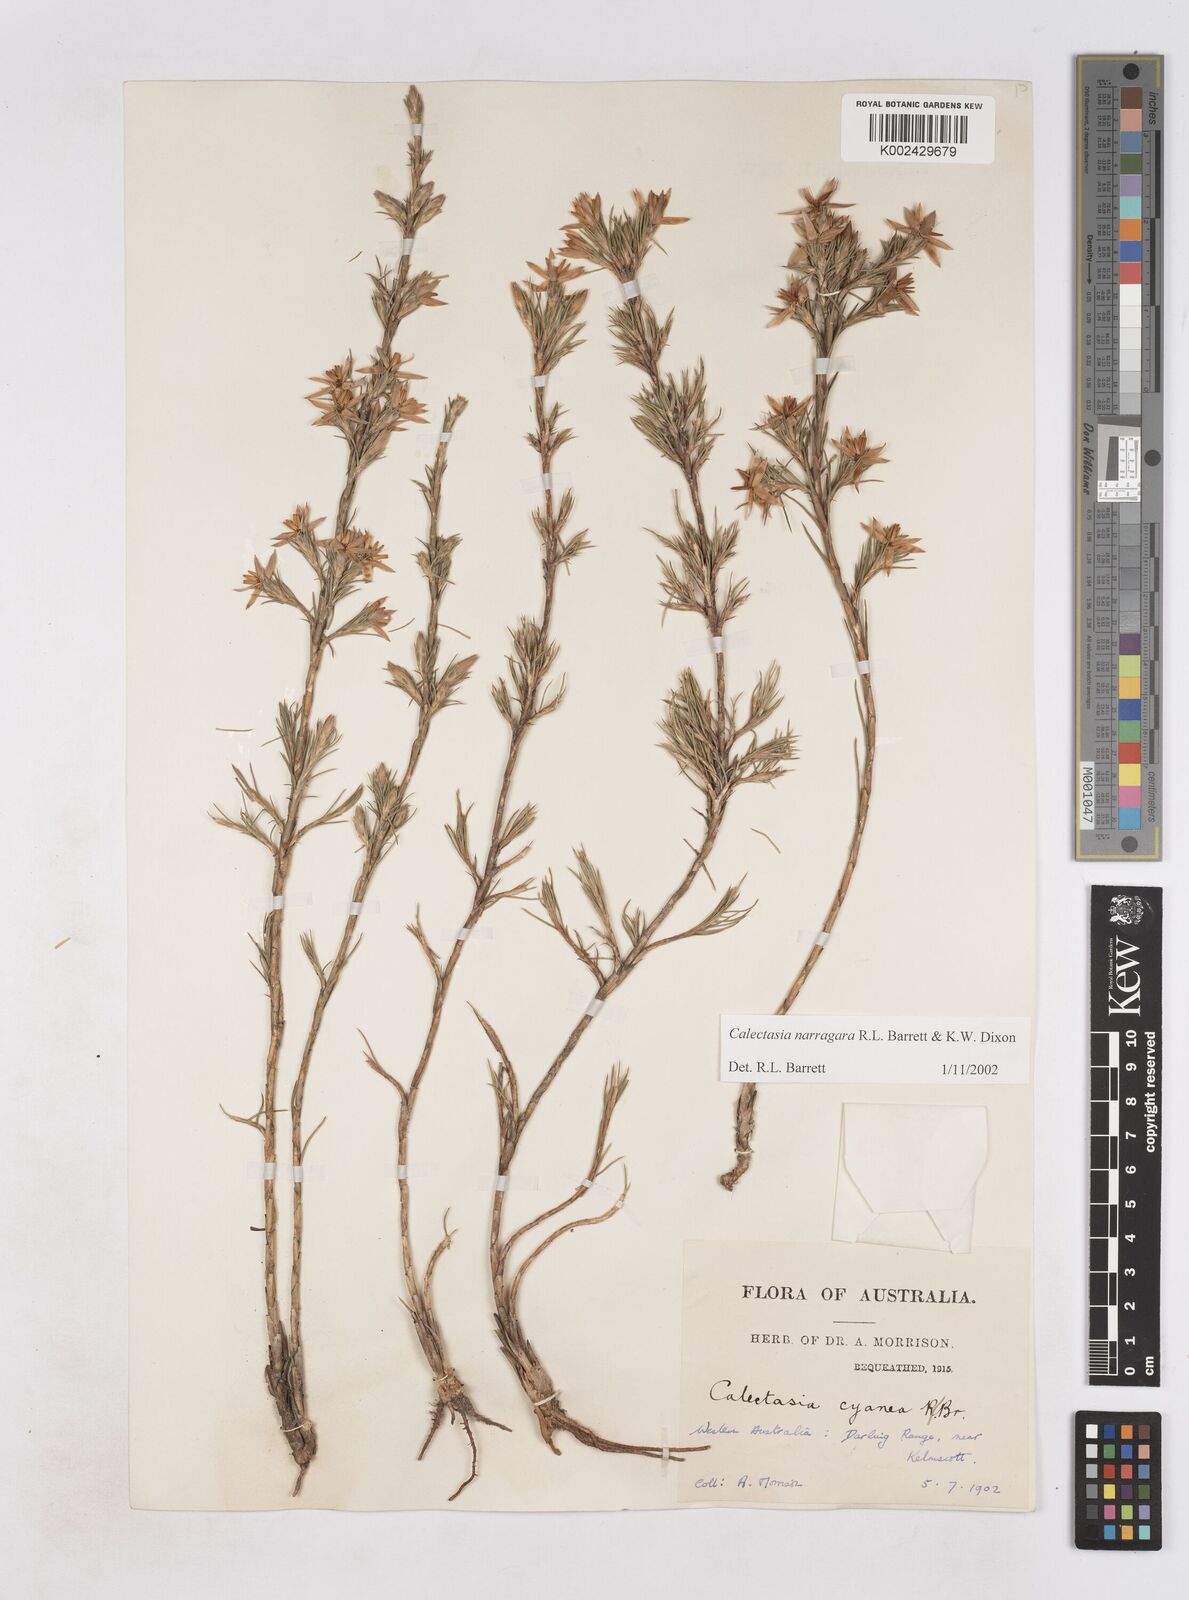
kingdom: Plantae
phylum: Tracheophyta
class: Liliopsida
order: Arecales
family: Dasypogonaceae
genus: Calectasia
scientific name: Calectasia narragara
